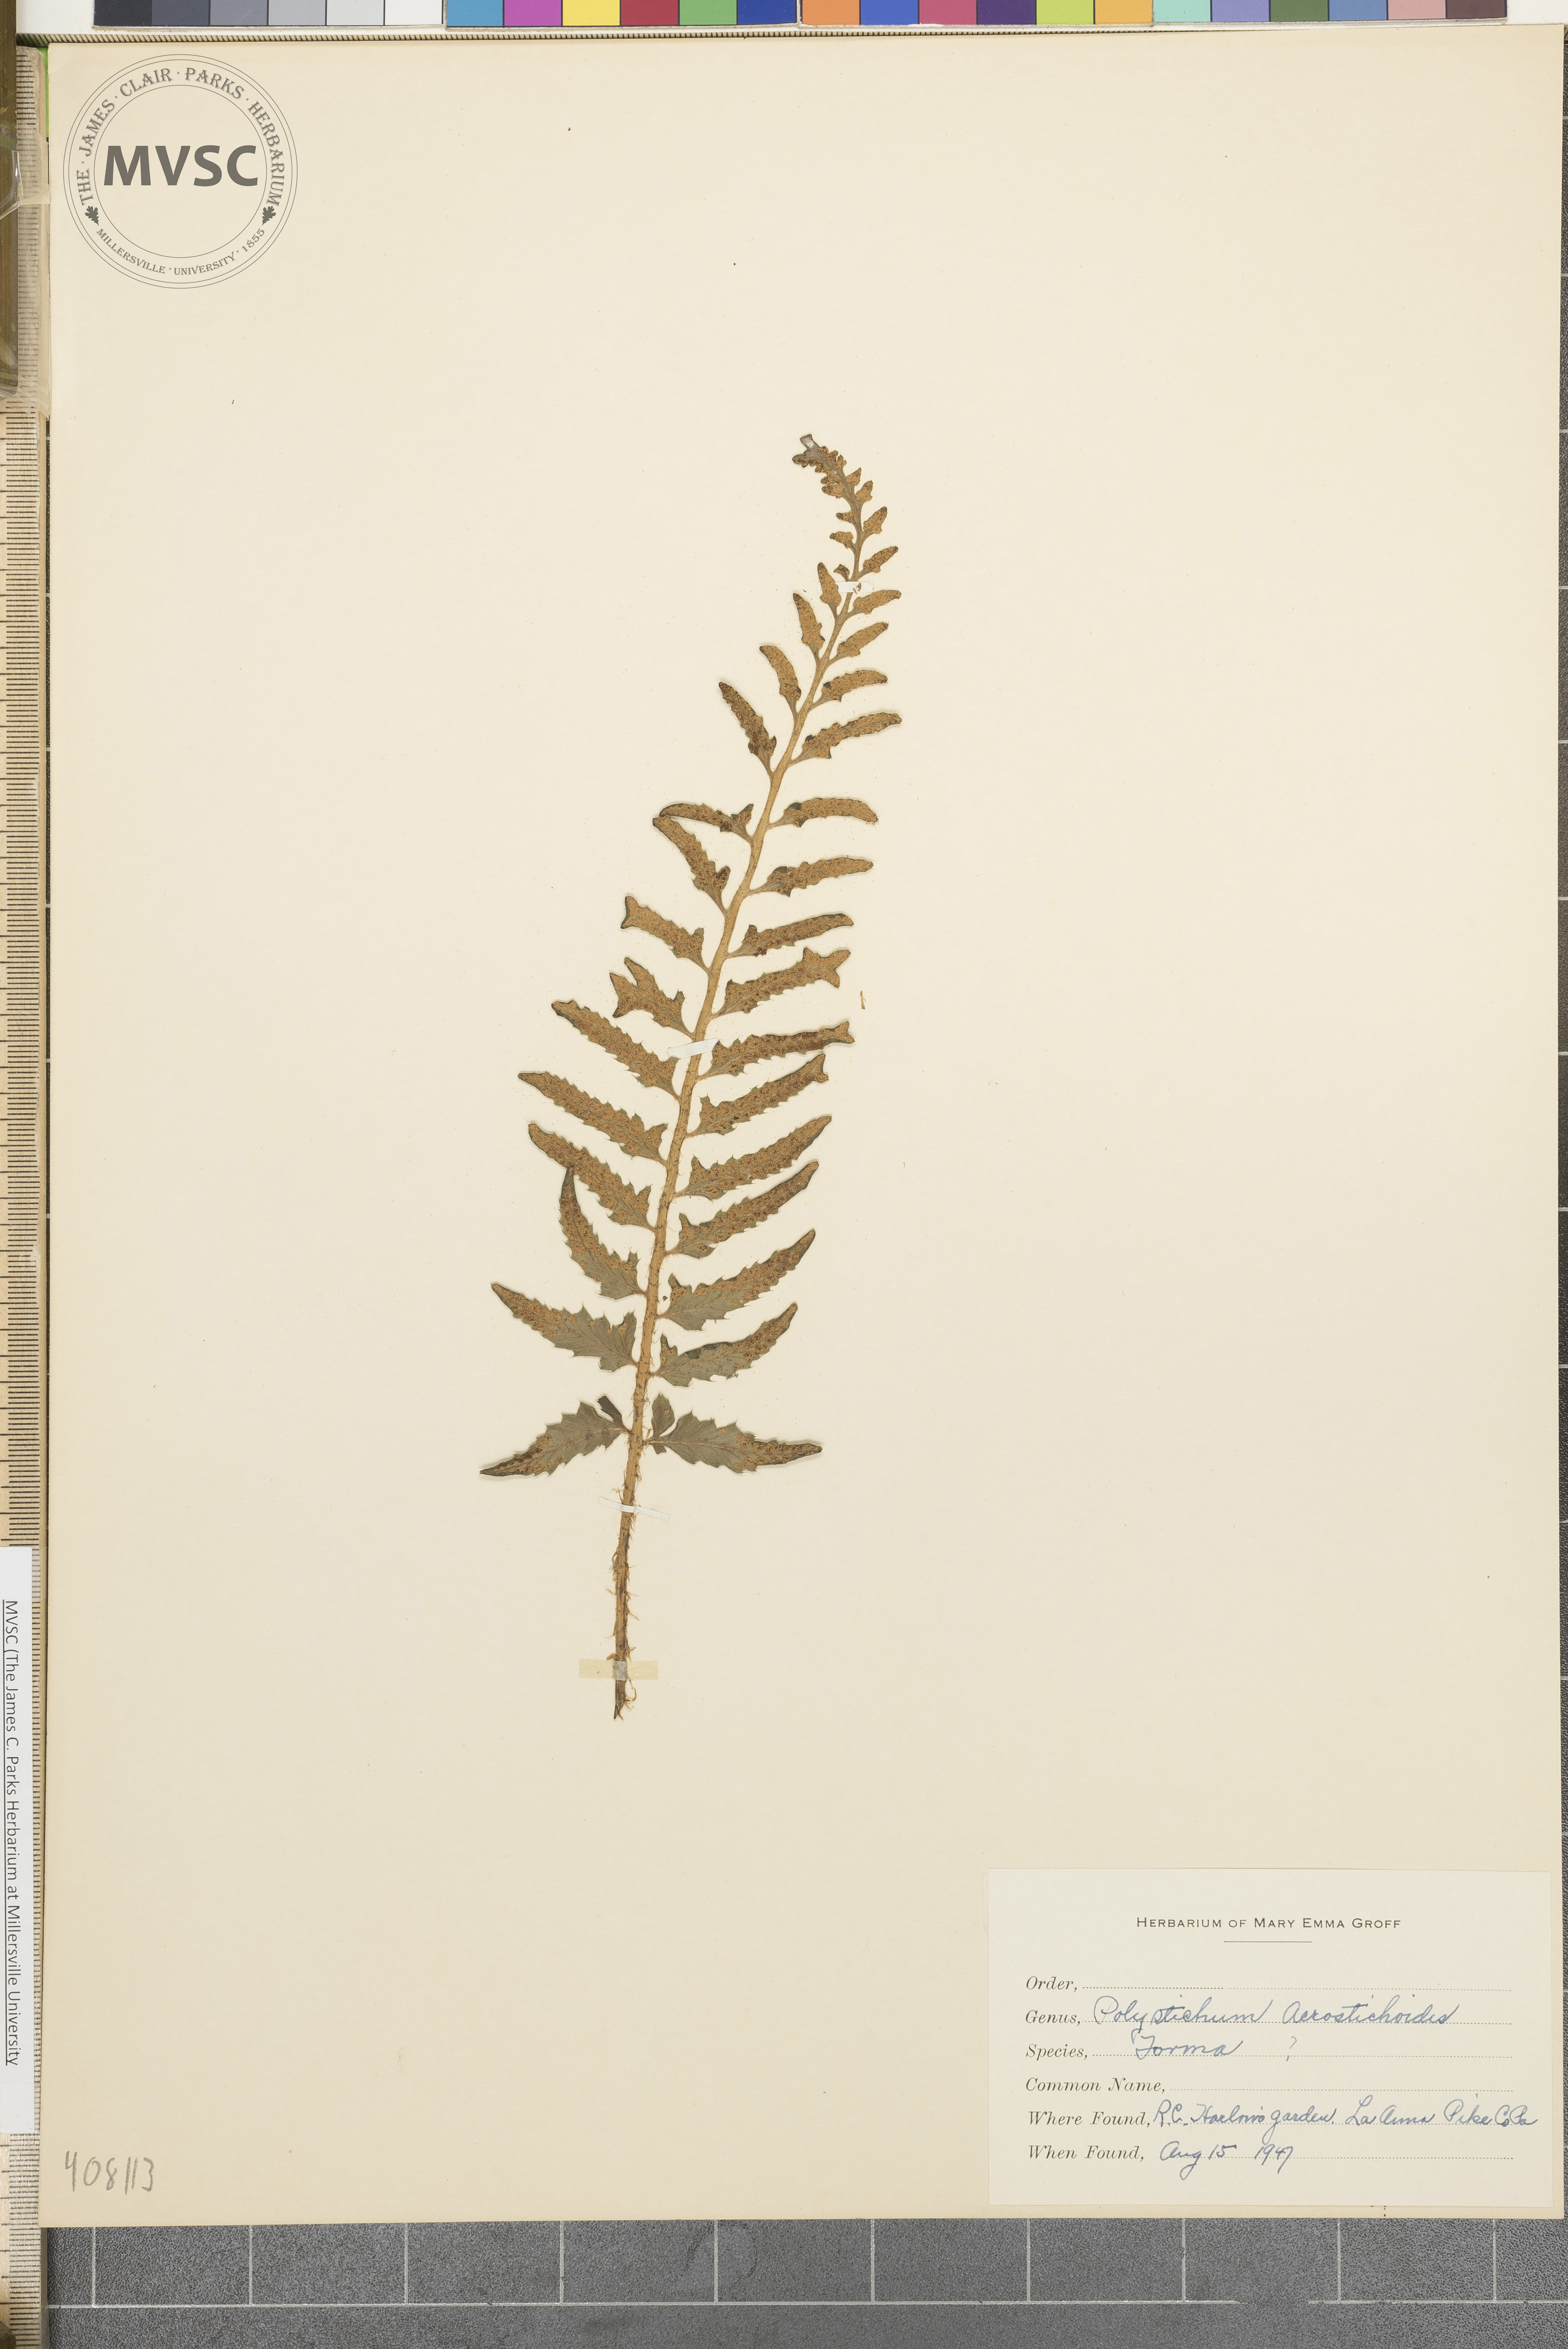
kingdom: Plantae
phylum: Tracheophyta
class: Polypodiopsida
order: Polypodiales
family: Dryopteridaceae
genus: Polystichum
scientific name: Polystichum acrostichoides
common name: Christmas fern
